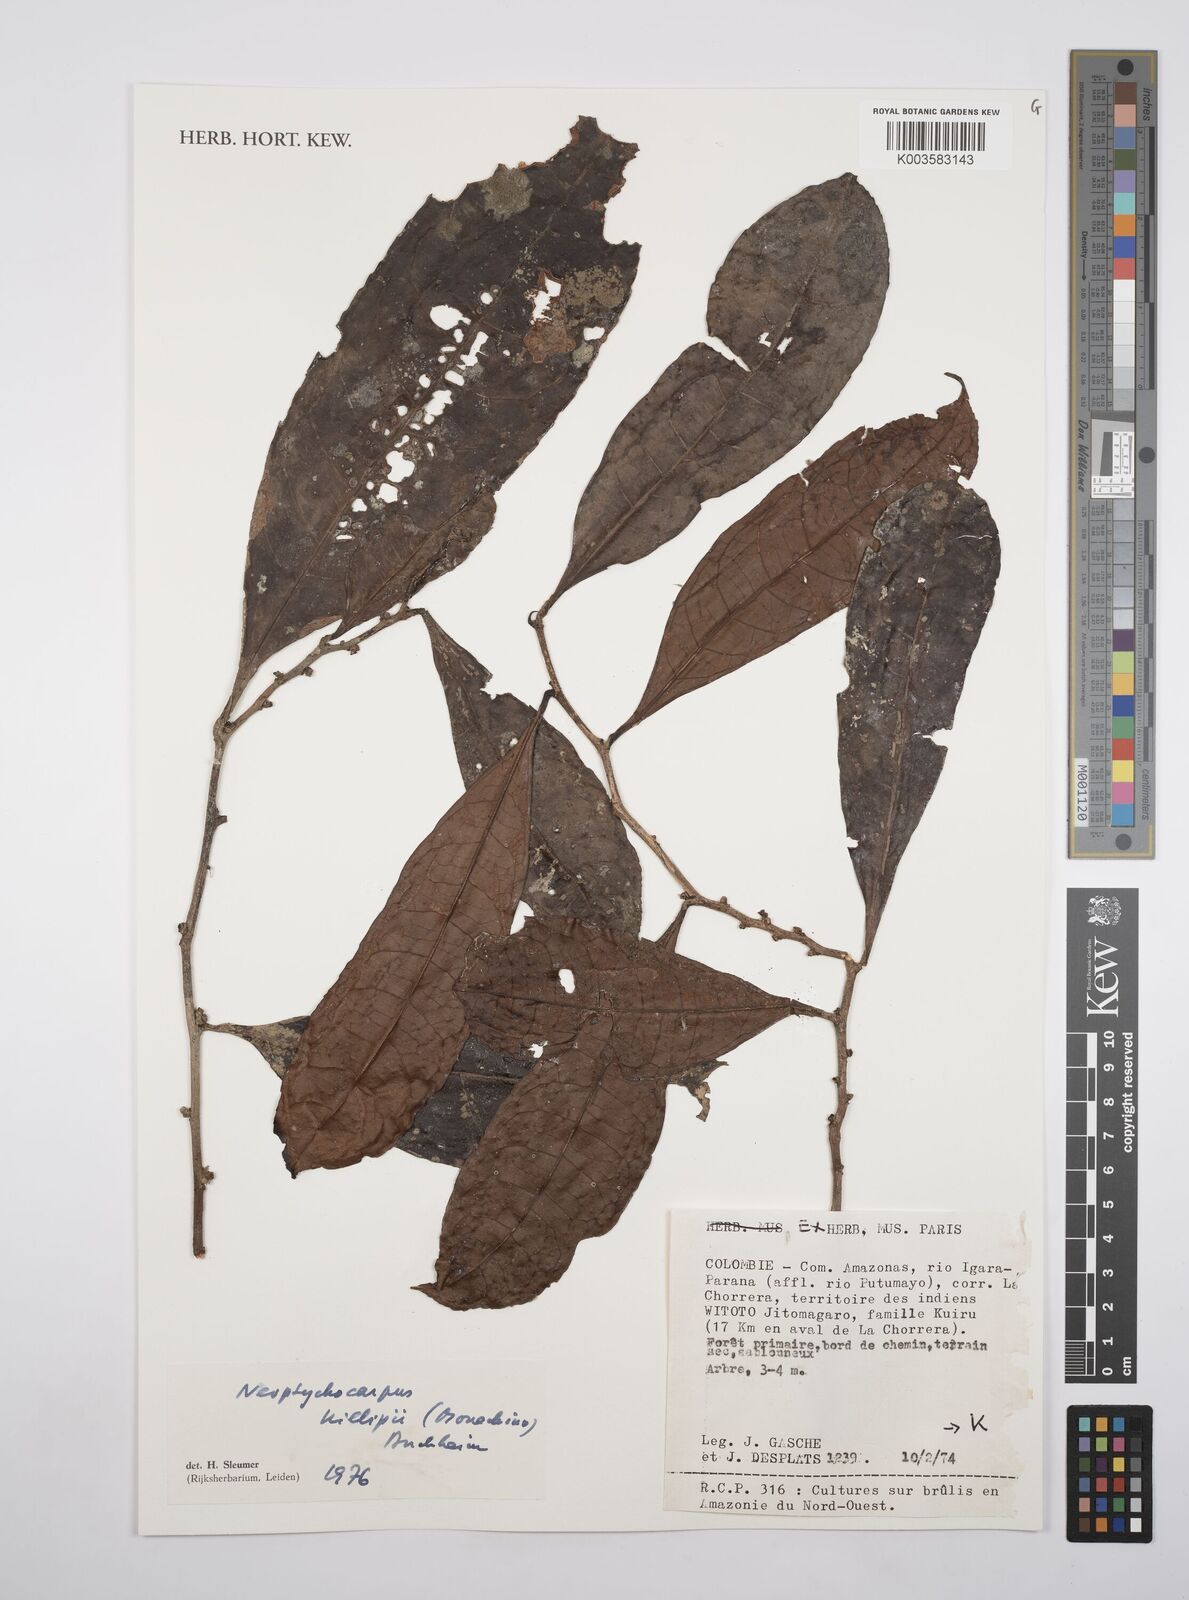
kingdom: Plantae
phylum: Tracheophyta
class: Magnoliopsida
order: Malpighiales
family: Salicaceae
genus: Casearia
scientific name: Casearia killipii
